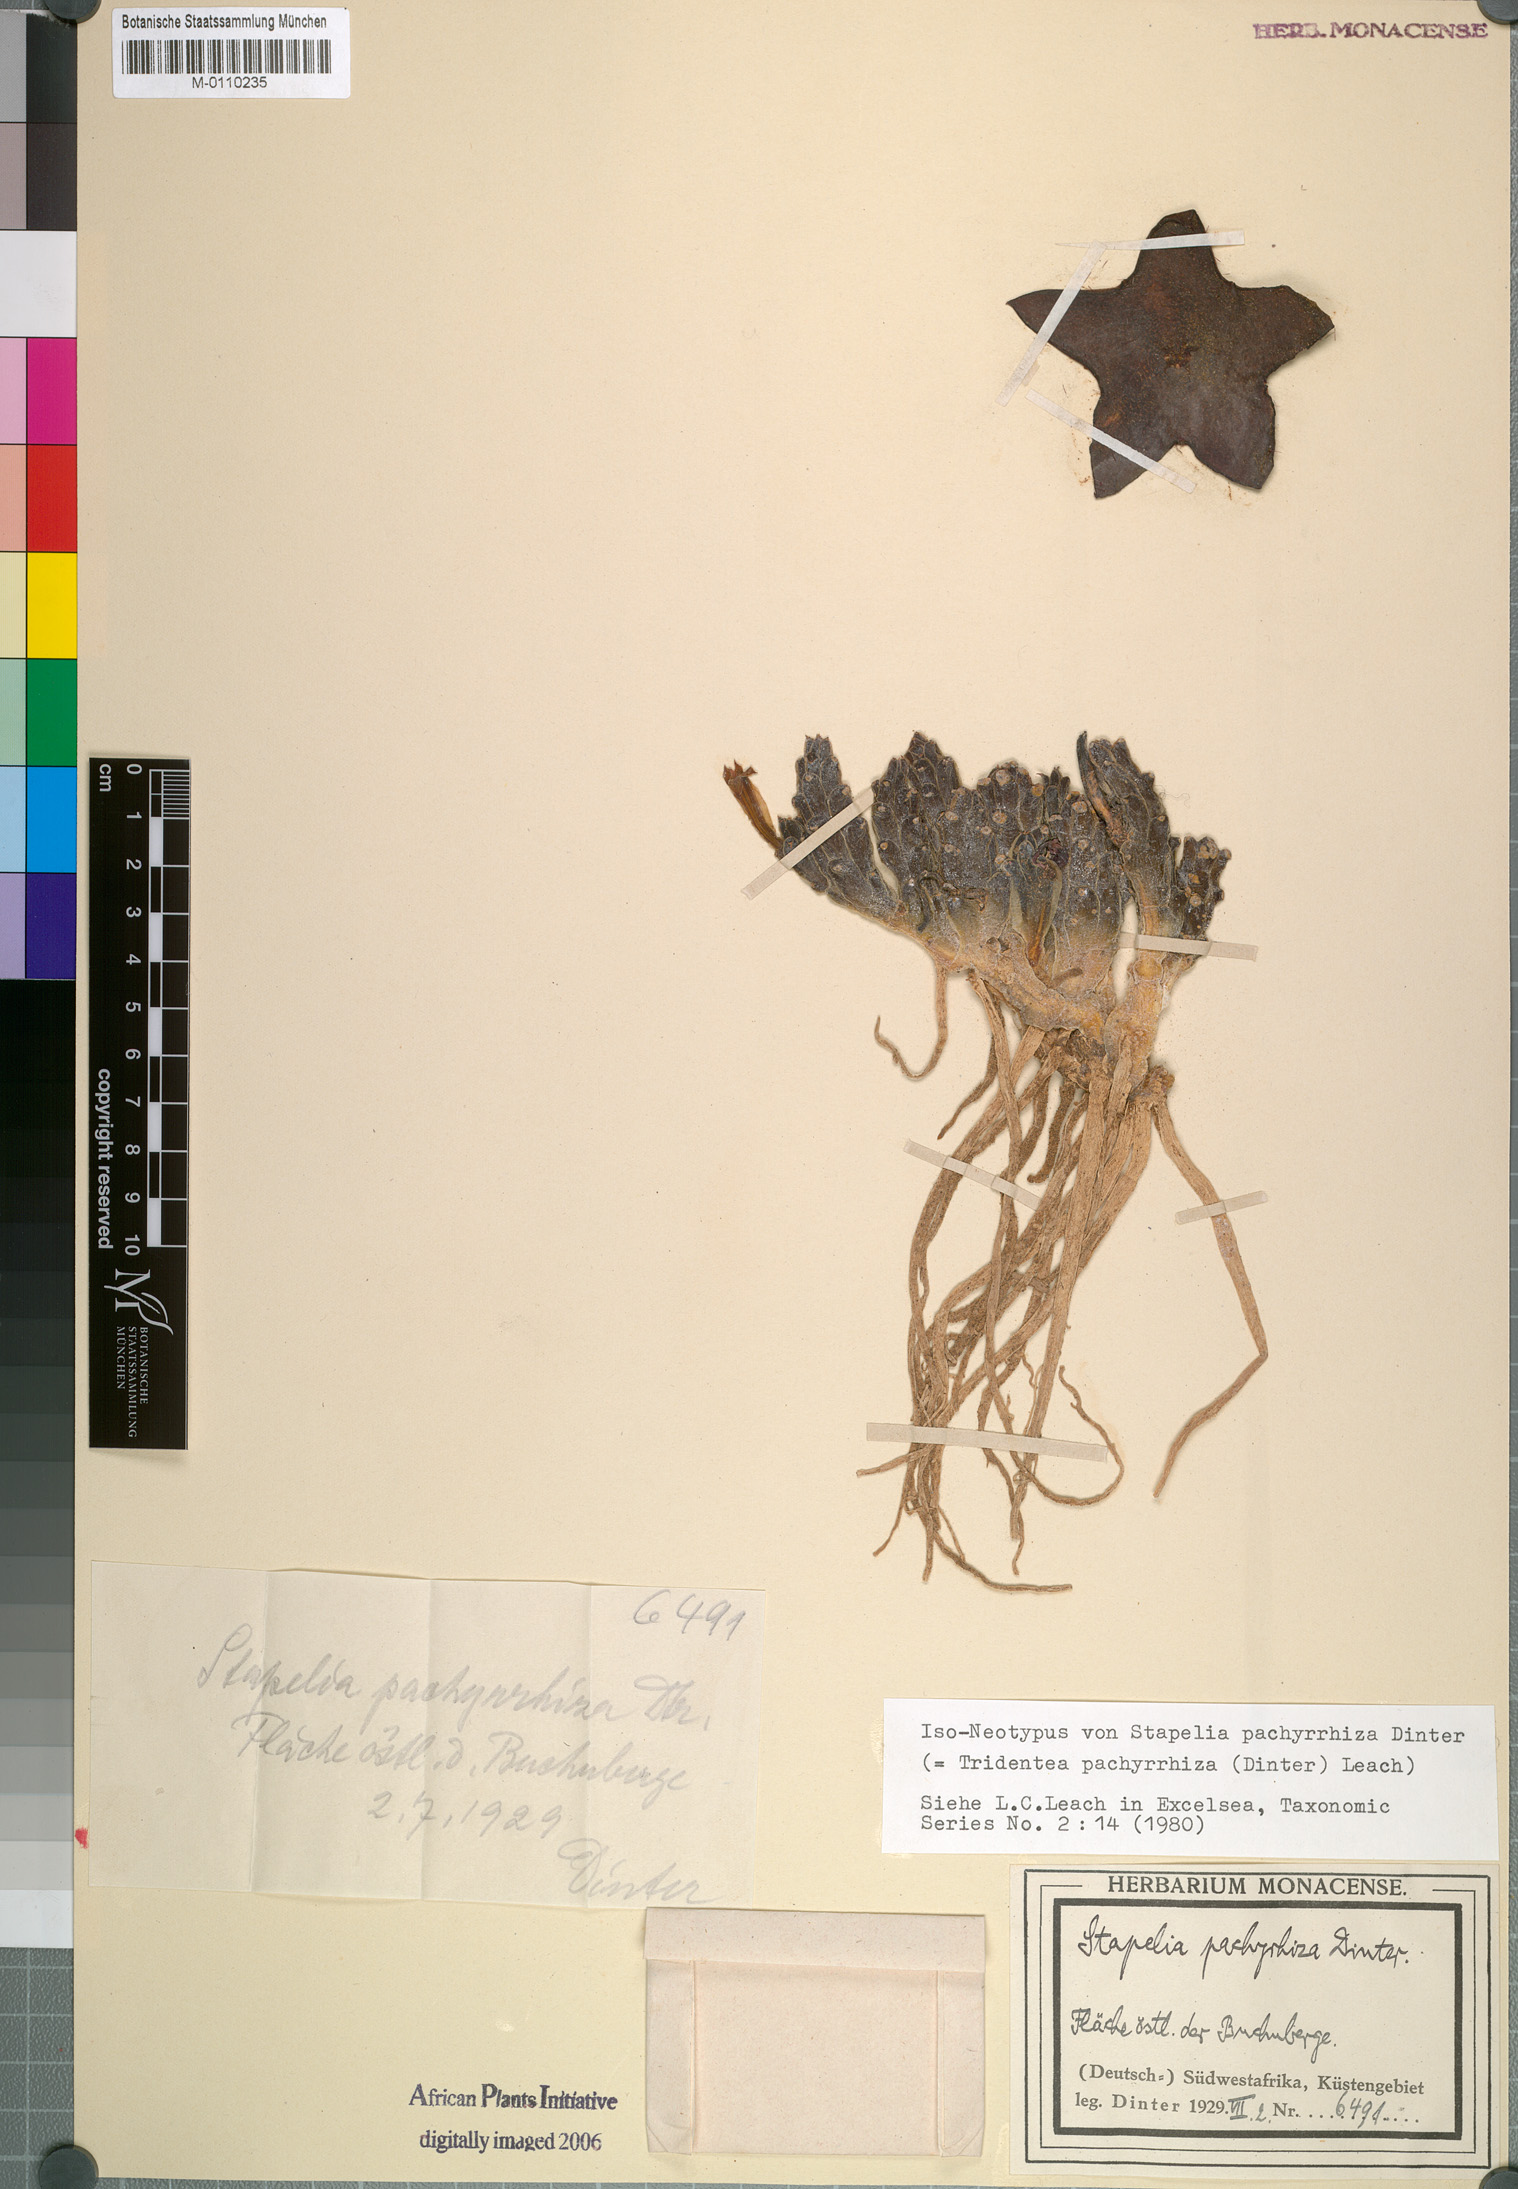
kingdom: Plantae
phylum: Tracheophyta
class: Magnoliopsida
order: Gentianales
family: Apocynaceae
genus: Ceropegia
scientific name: Ceropegia pachyrrhiza
